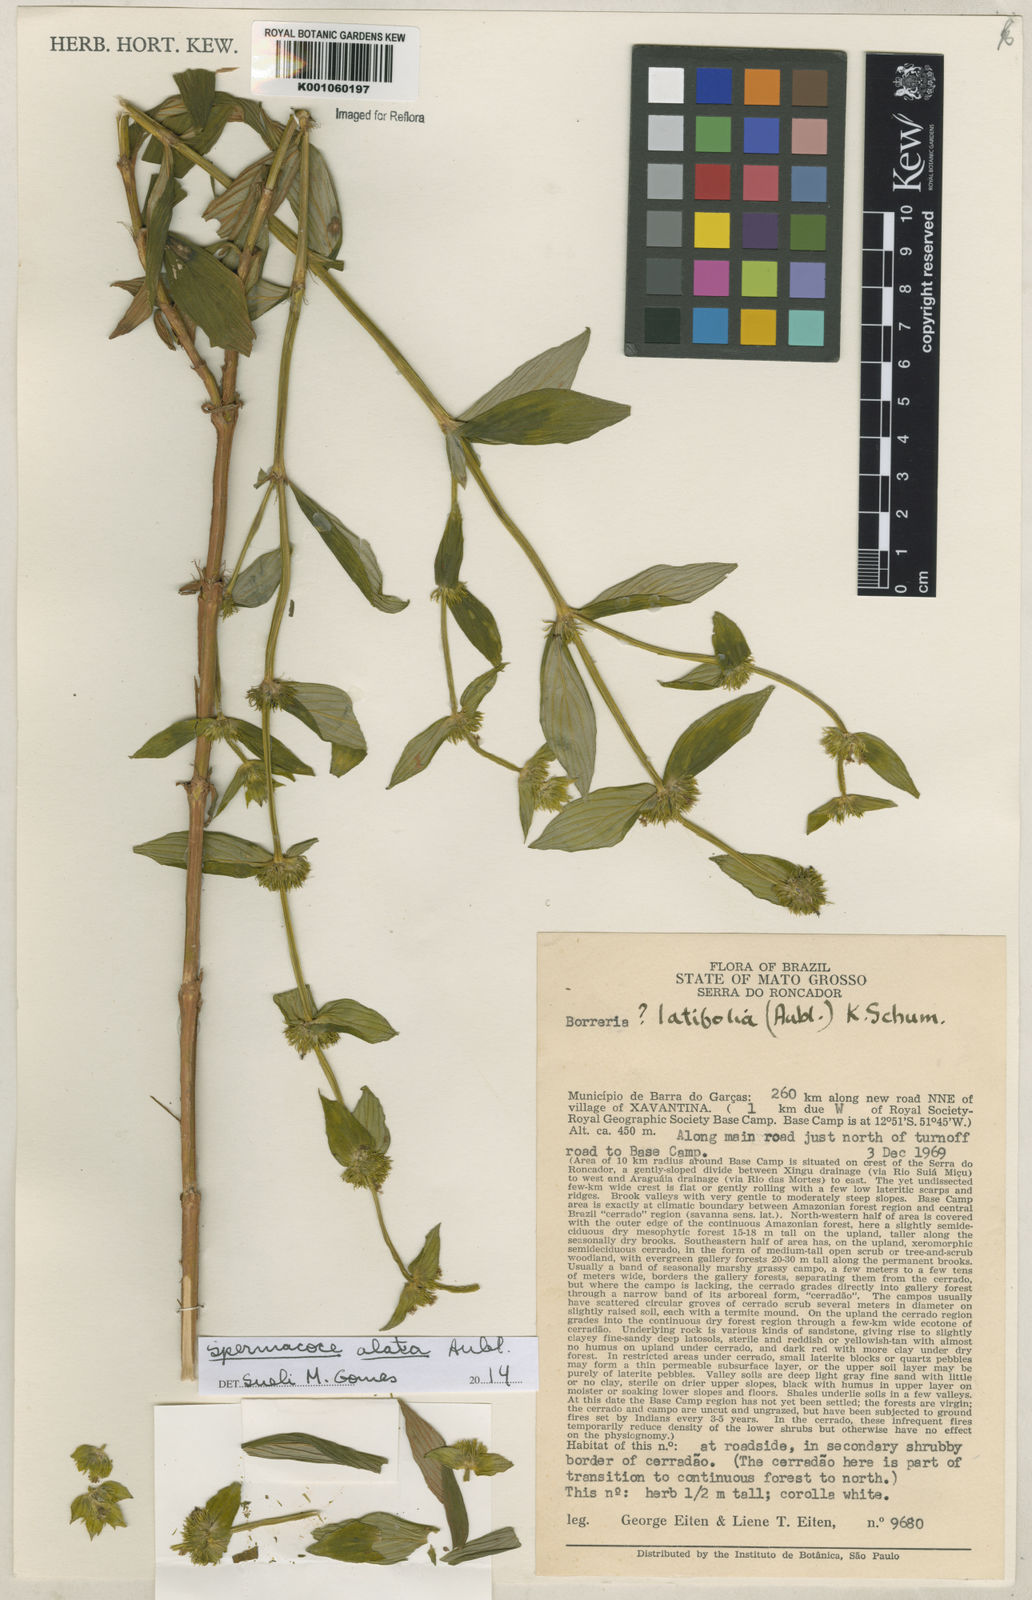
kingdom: Plantae
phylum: Tracheophyta
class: Magnoliopsida
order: Gentianales
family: Rubiaceae
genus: Spermacoce
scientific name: Spermacoce
